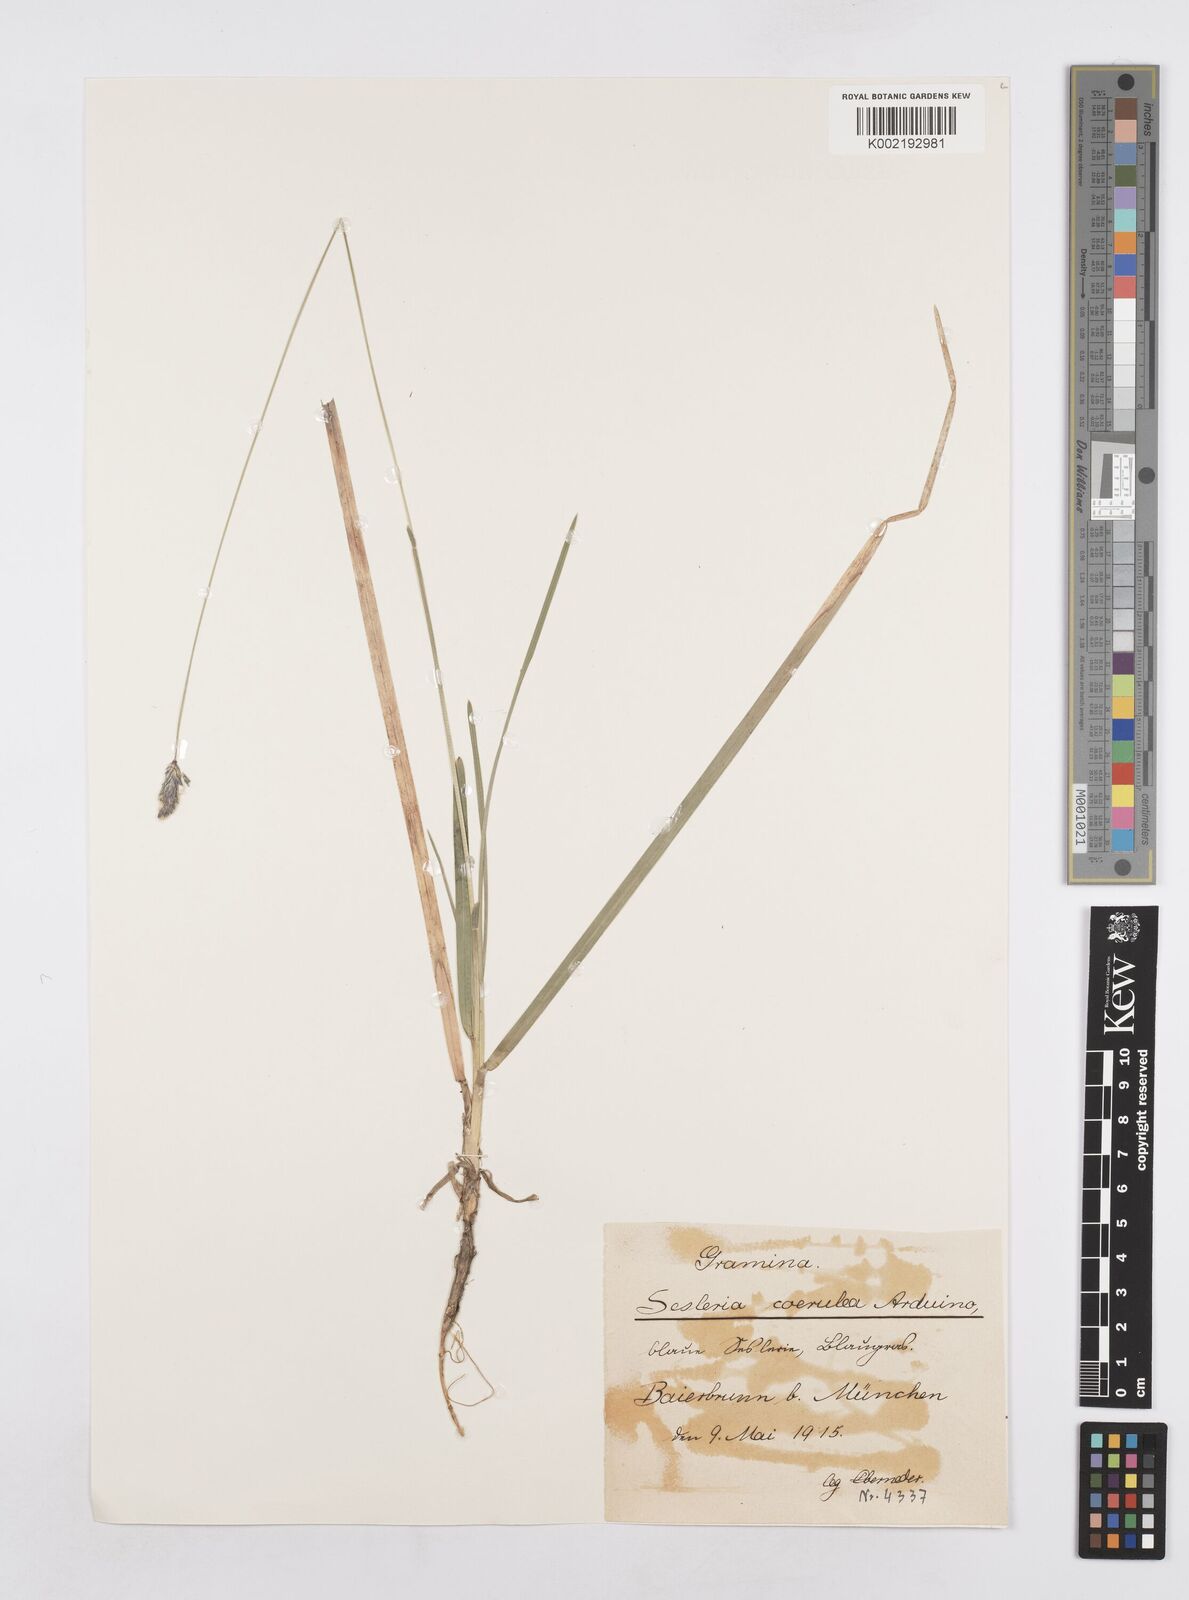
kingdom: Plantae
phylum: Tracheophyta
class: Liliopsida
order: Poales
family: Poaceae
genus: Sesleria
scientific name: Sesleria caerulea
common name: Blue moor-grass
